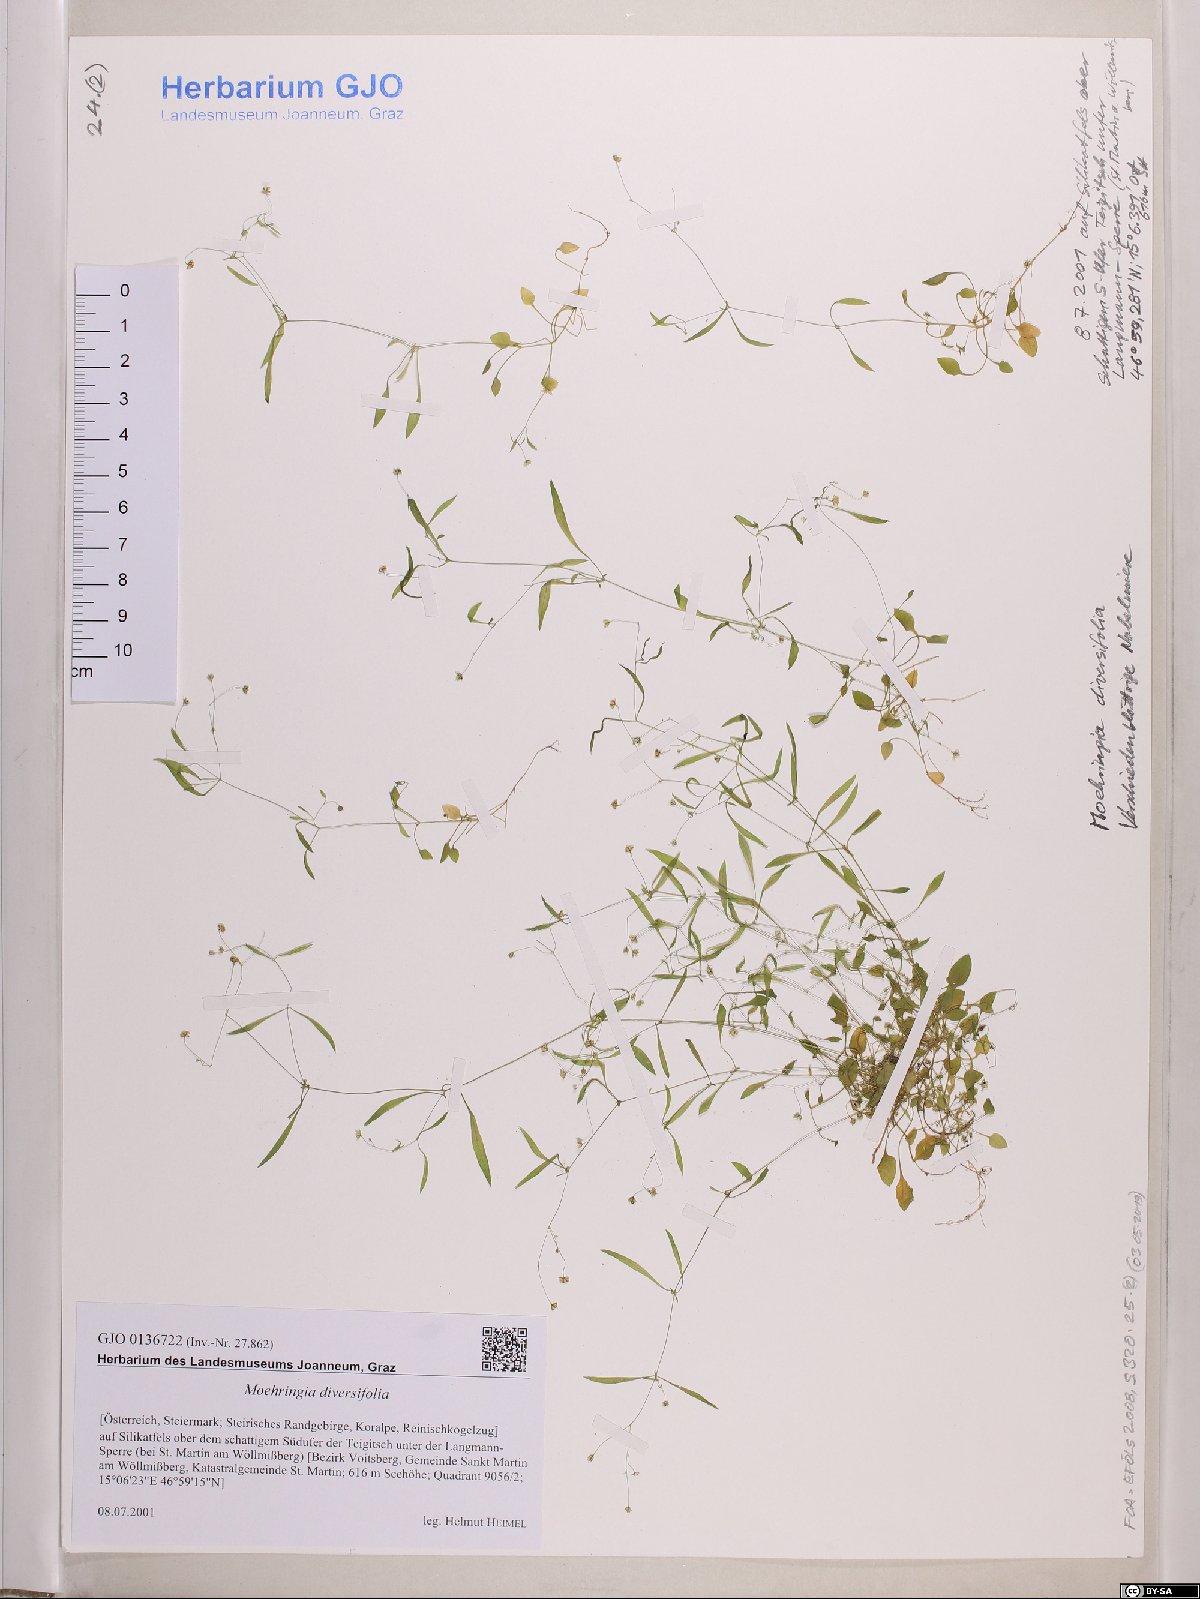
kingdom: Plantae
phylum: Tracheophyta
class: Magnoliopsida
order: Caryophyllales
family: Caryophyllaceae
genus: Moehringia
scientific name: Moehringia diversifolia
